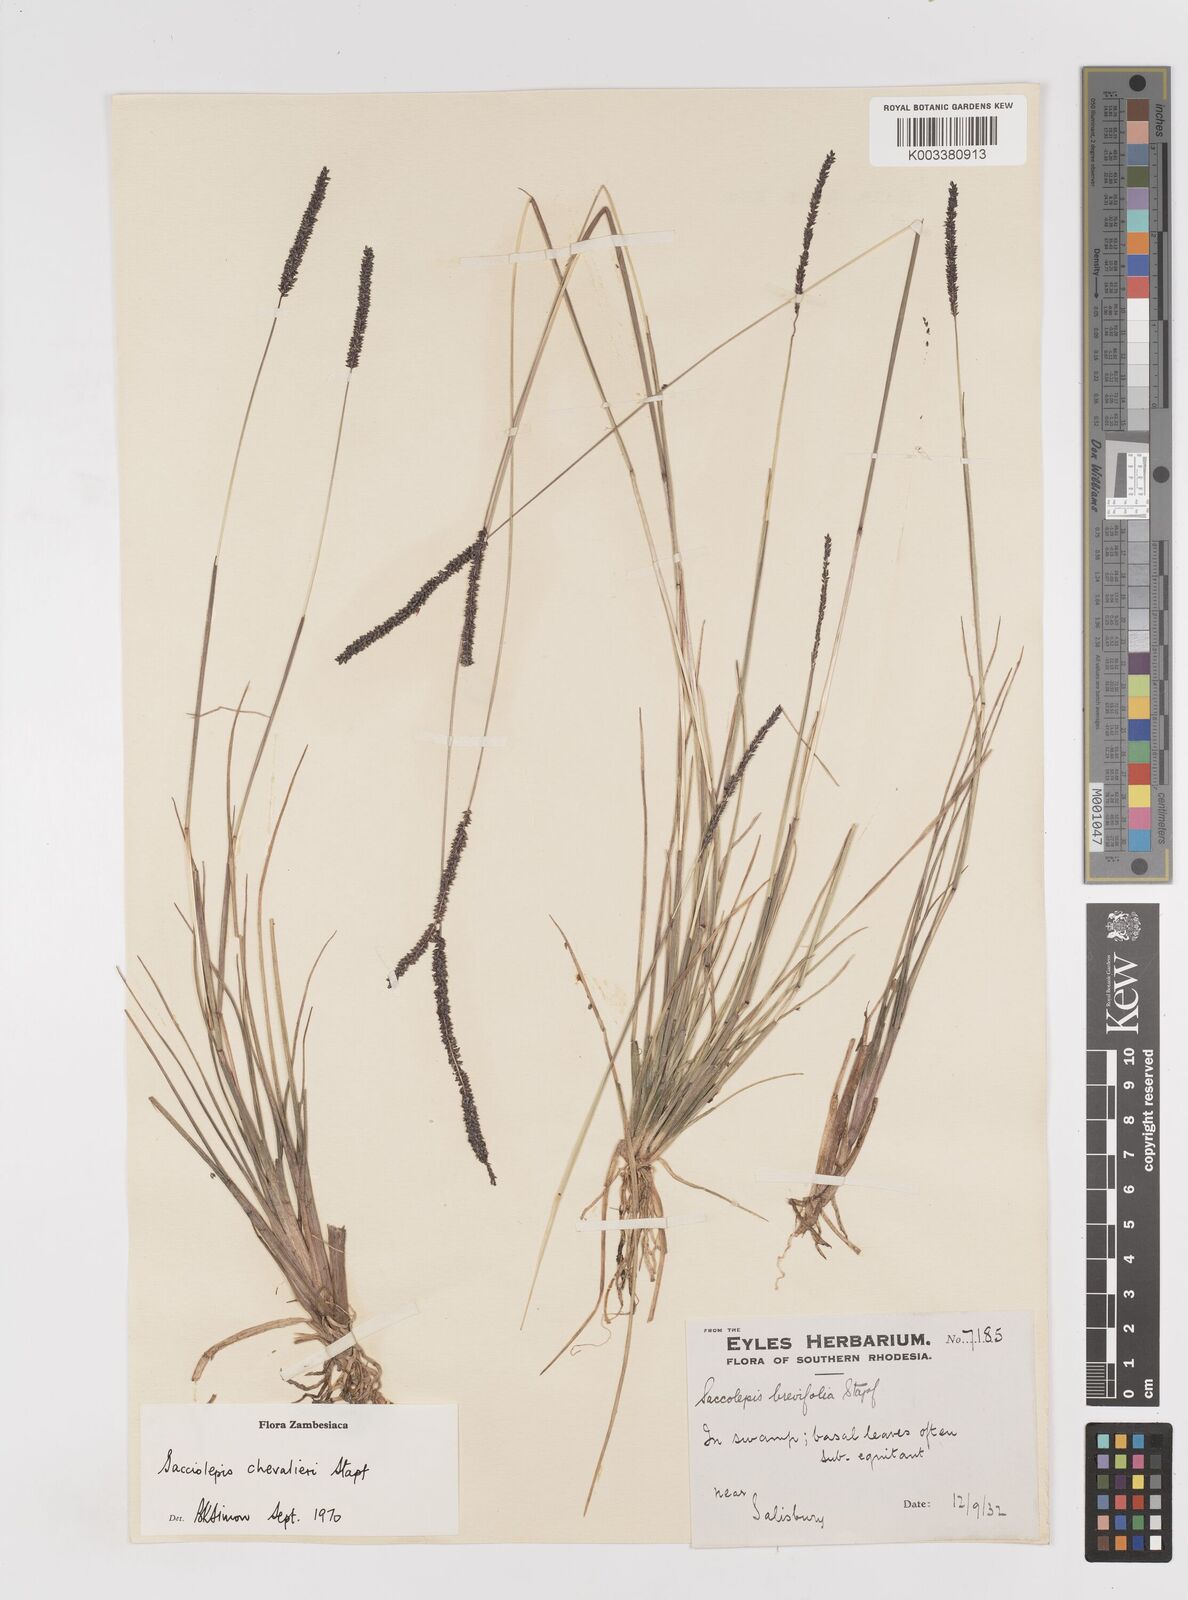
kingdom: Plantae
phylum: Tracheophyta
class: Liliopsida
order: Poales
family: Poaceae
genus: Sacciolepis
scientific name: Sacciolepis chevalieri
